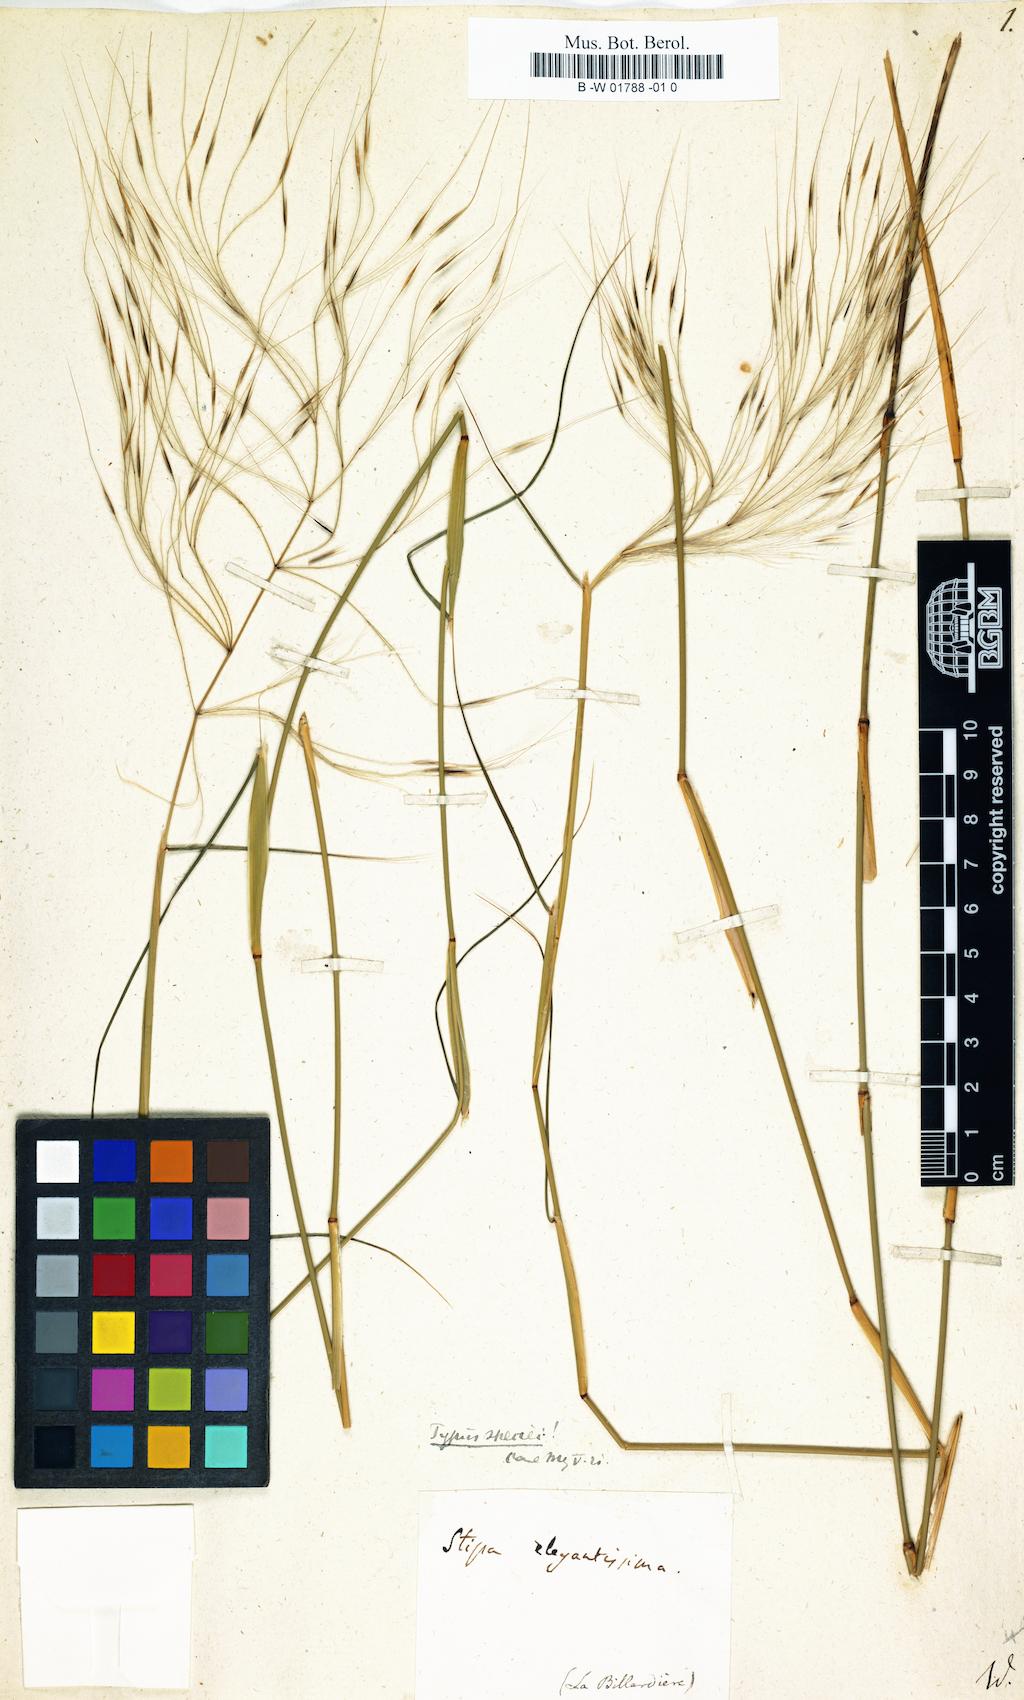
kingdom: Plantae
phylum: Tracheophyta
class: Liliopsida
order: Poales
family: Poaceae
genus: Austrostipa
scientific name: Austrostipa elegantissima
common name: Feather spear grass
